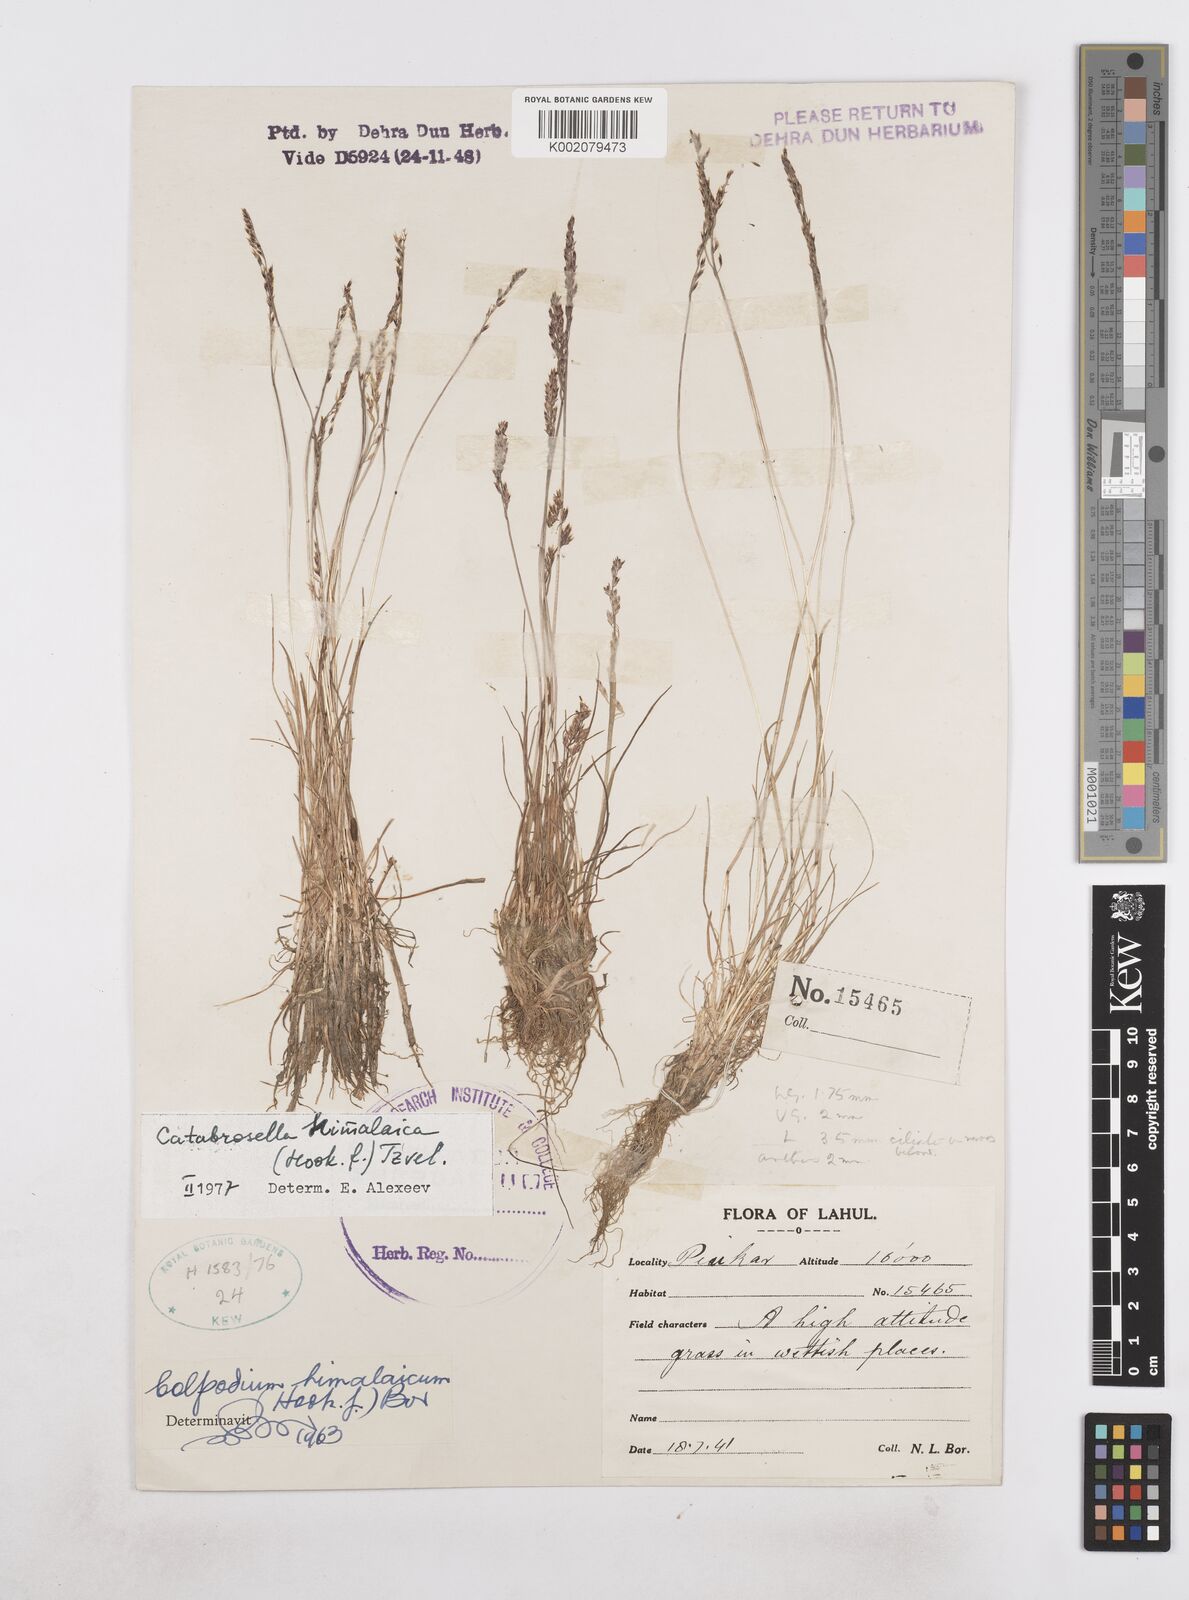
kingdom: Plantae
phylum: Tracheophyta
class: Liliopsida
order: Poales
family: Poaceae
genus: Catabrosella
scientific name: Catabrosella himalaica
